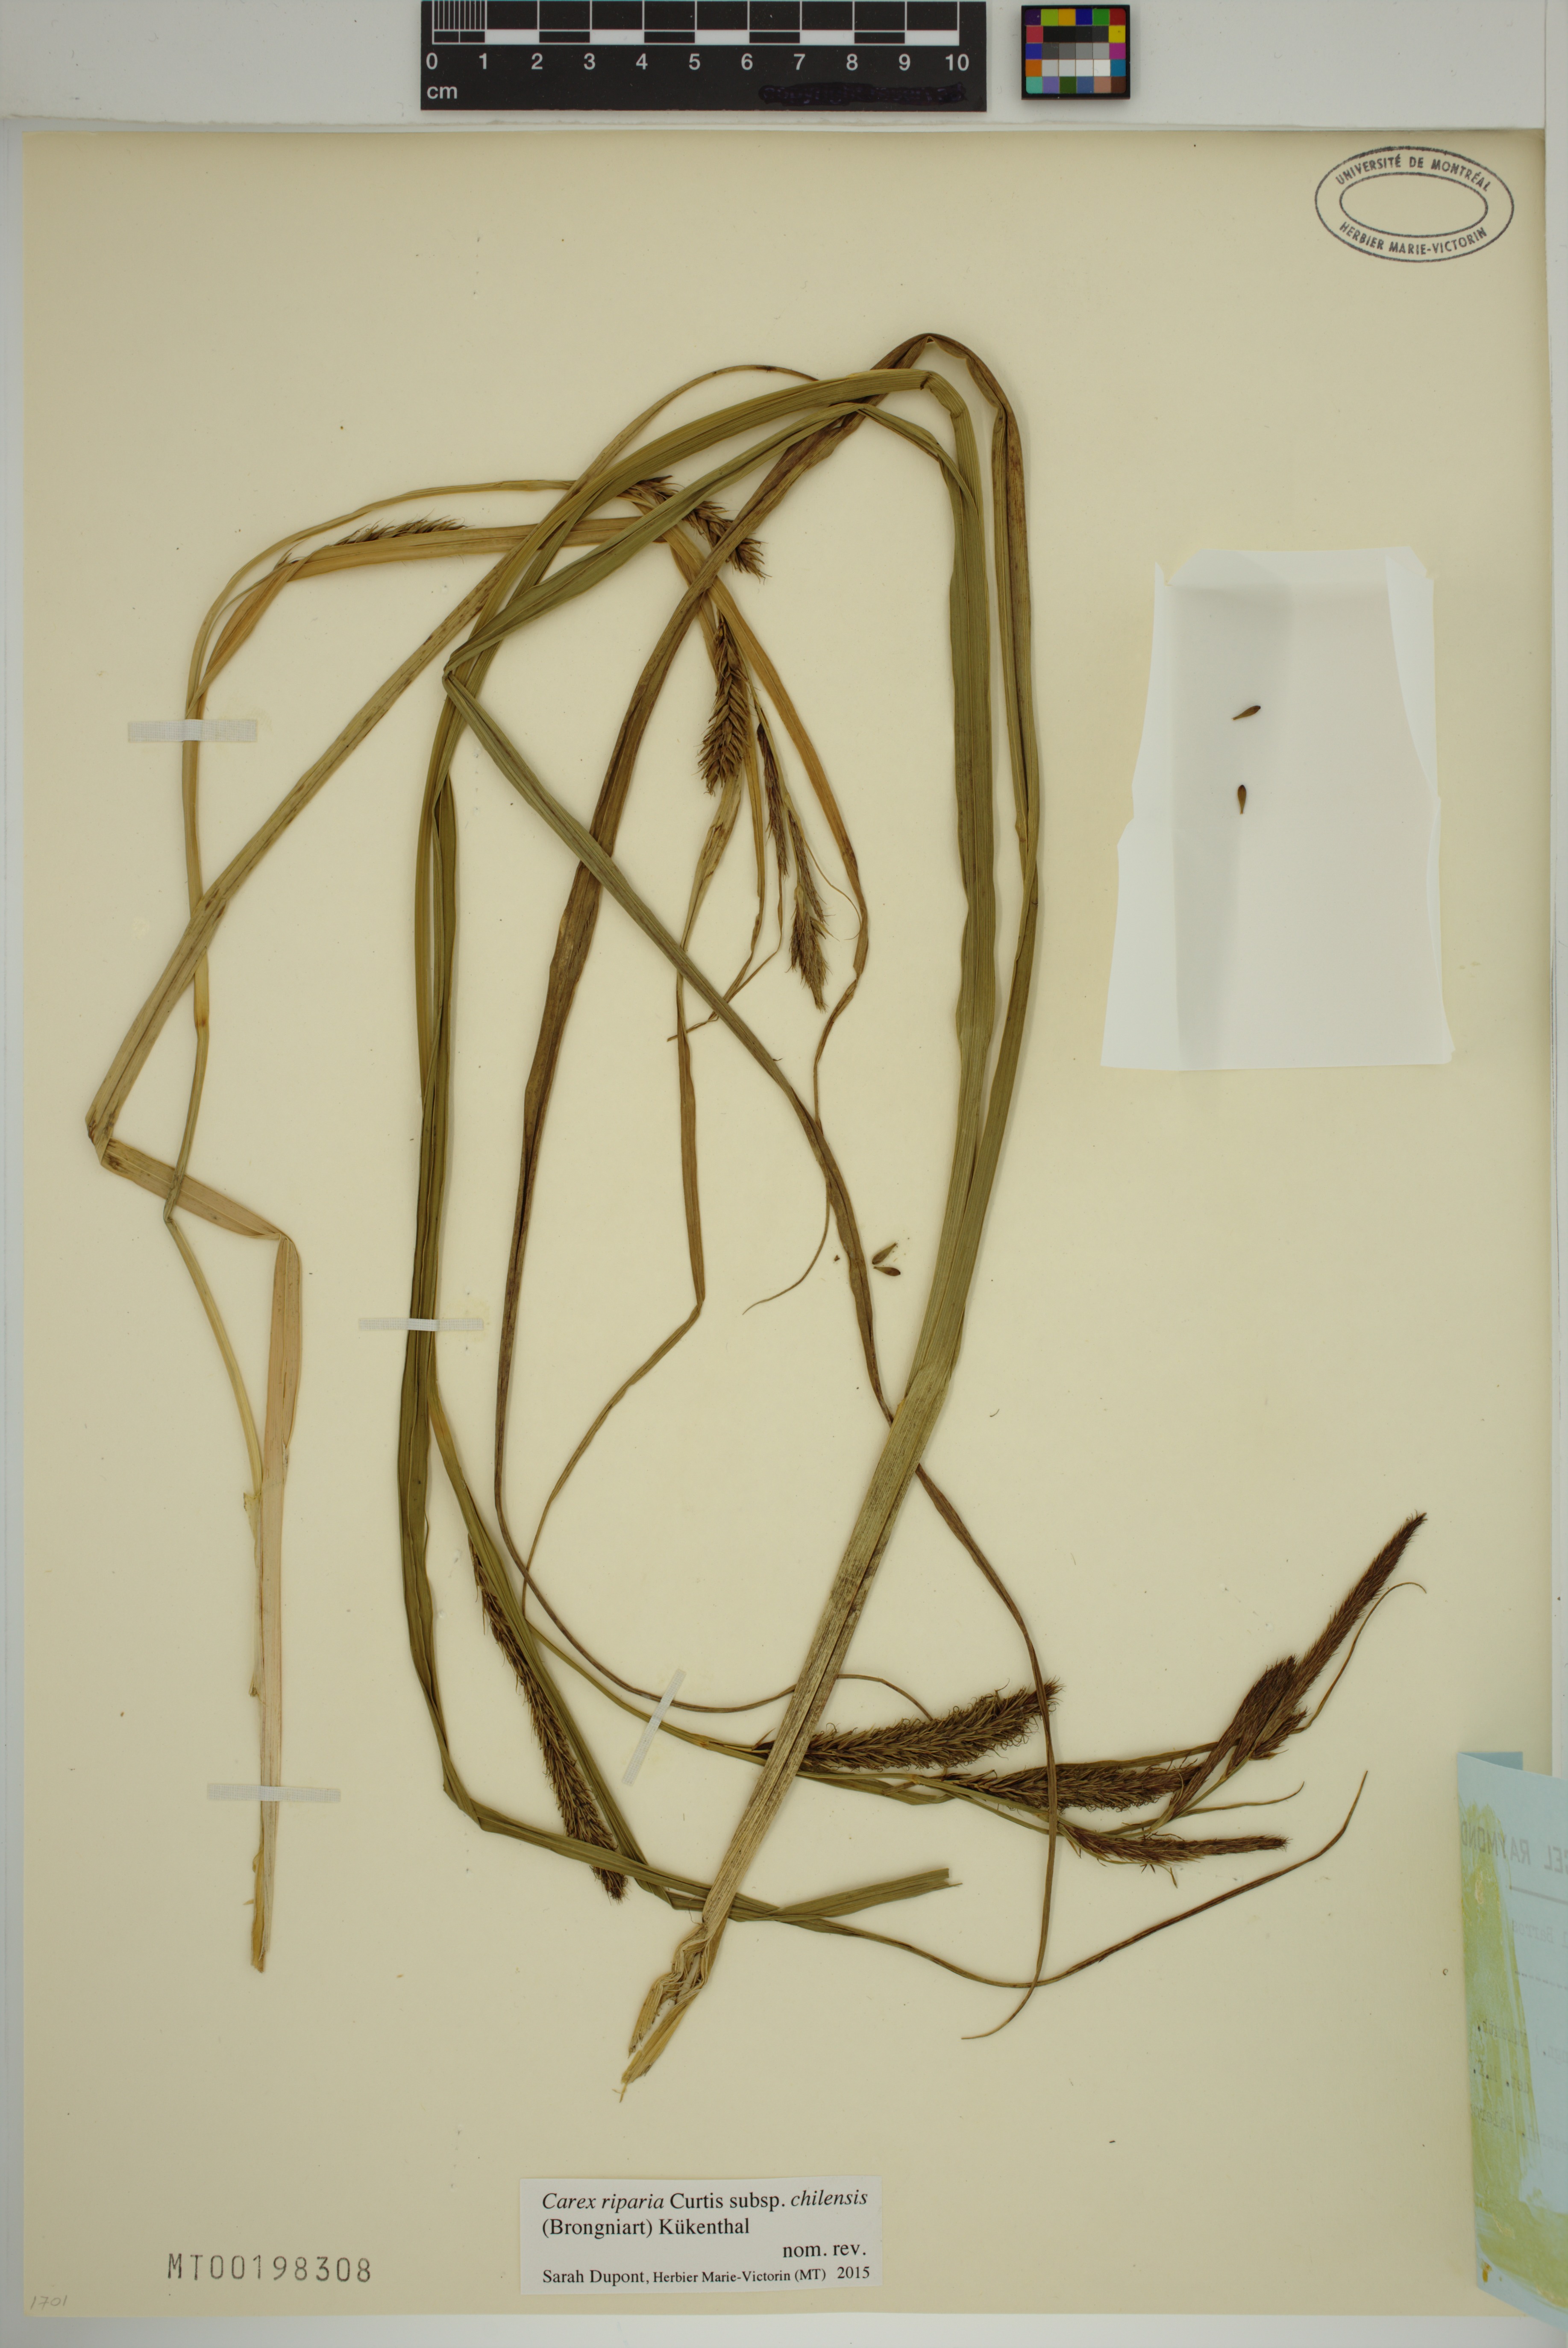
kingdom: Plantae
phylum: Tracheophyta
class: Liliopsida
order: Poales
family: Cyperaceae
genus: Carex
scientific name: Carex chilensis
